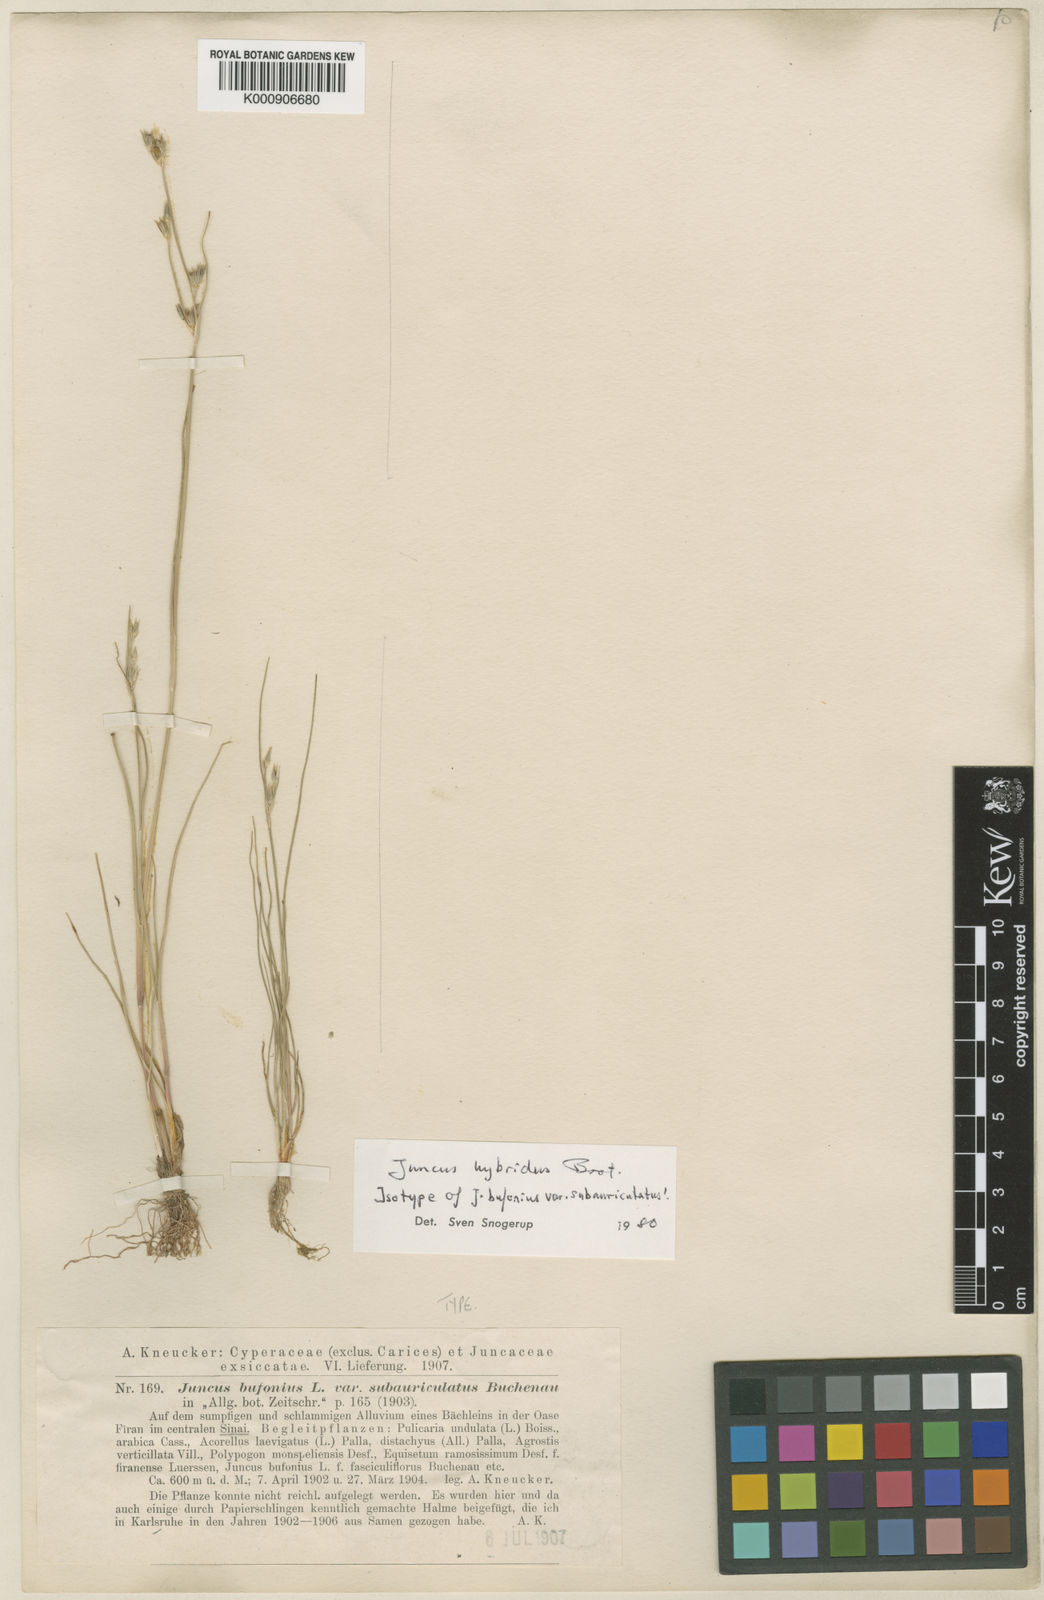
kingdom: Plantae
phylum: Tracheophyta
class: Liliopsida
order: Poales
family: Juncaceae
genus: Juncus
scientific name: Juncus hybridus
